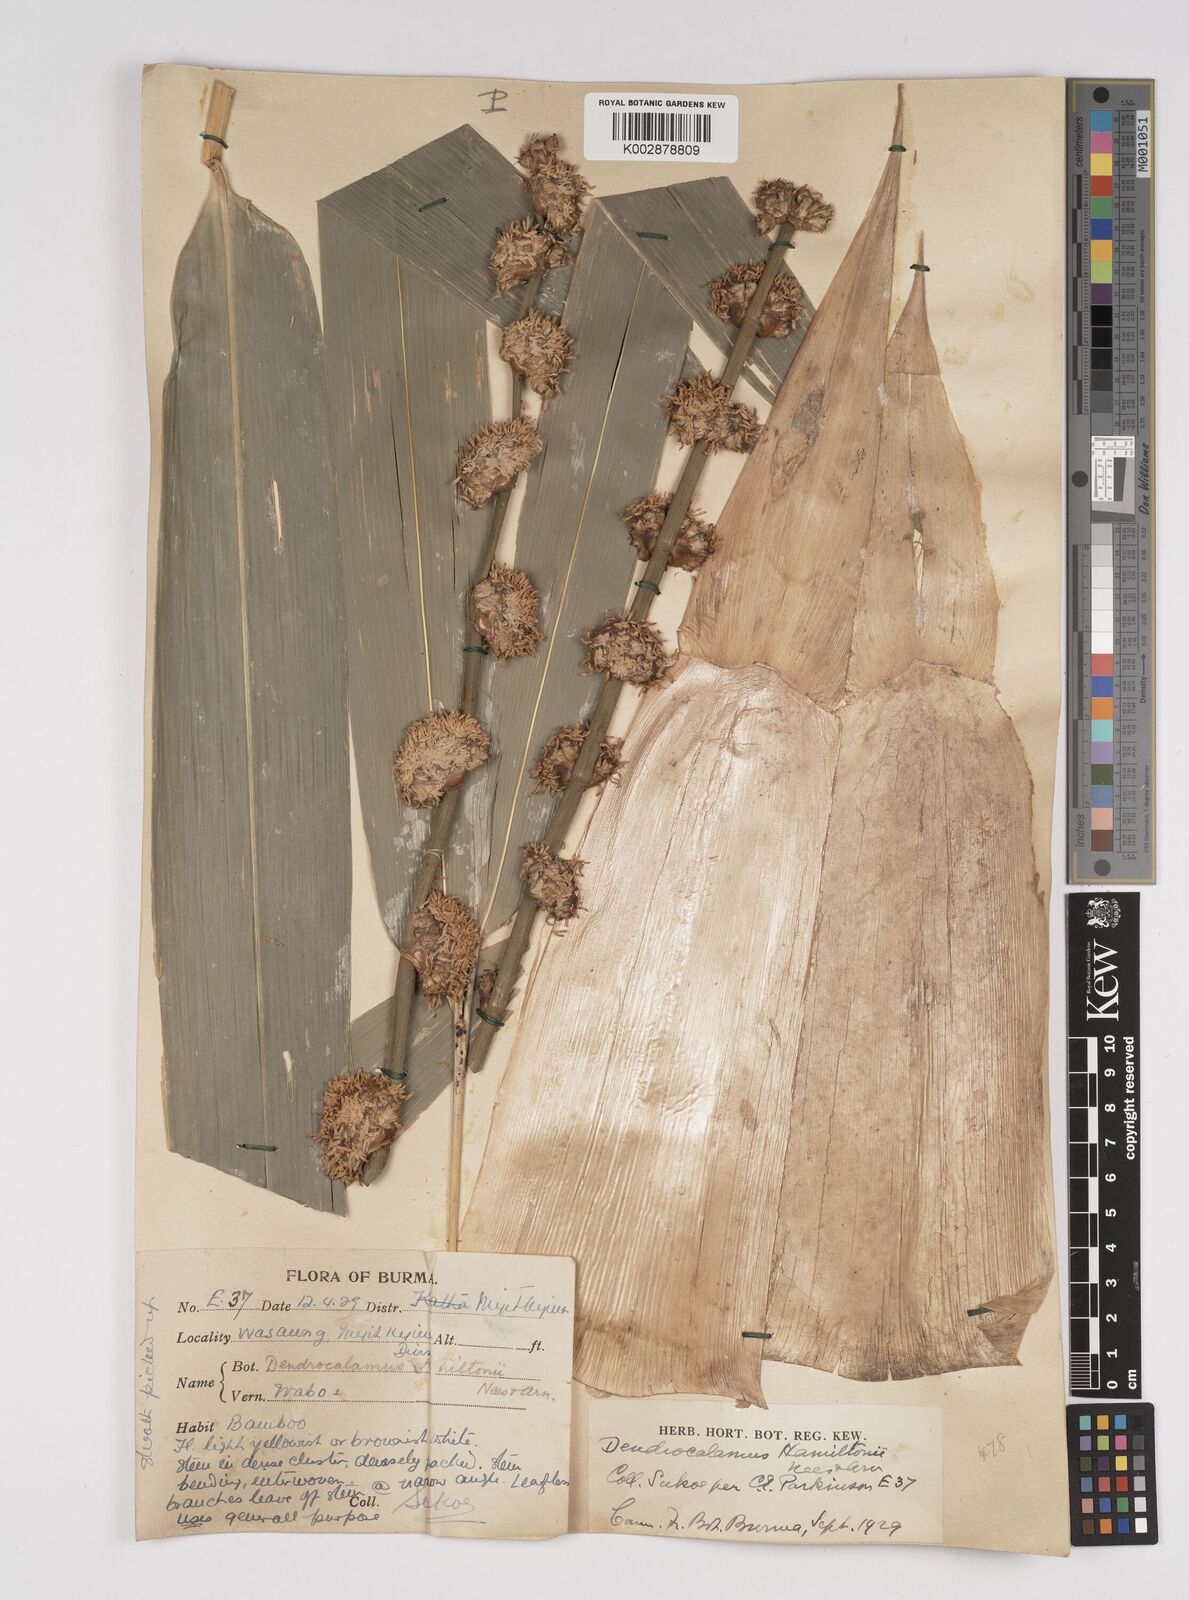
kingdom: Plantae
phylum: Tracheophyta
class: Liliopsida
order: Poales
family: Poaceae
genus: Dendrocalamus
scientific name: Dendrocalamus hamiltonii
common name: Tama bamboo
